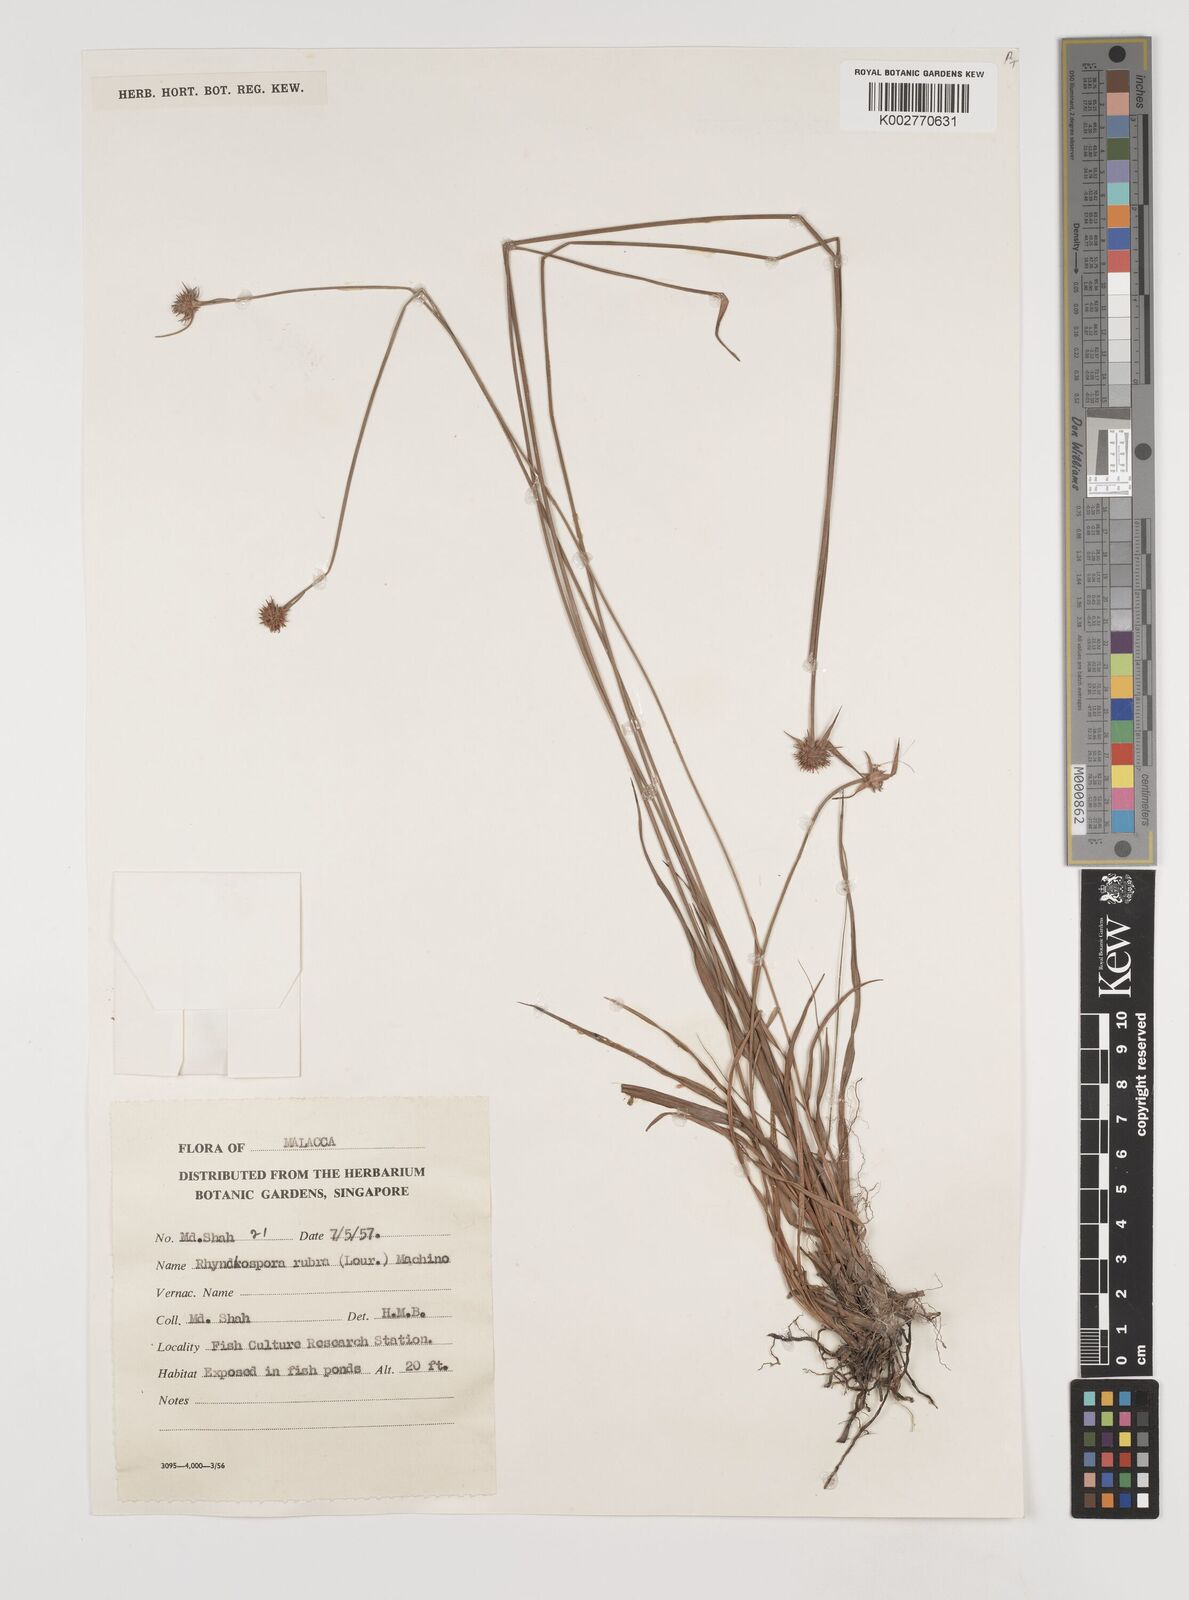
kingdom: Plantae
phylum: Tracheophyta
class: Liliopsida
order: Poales
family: Cyperaceae
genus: Rhynchospora
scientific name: Rhynchospora rubra
